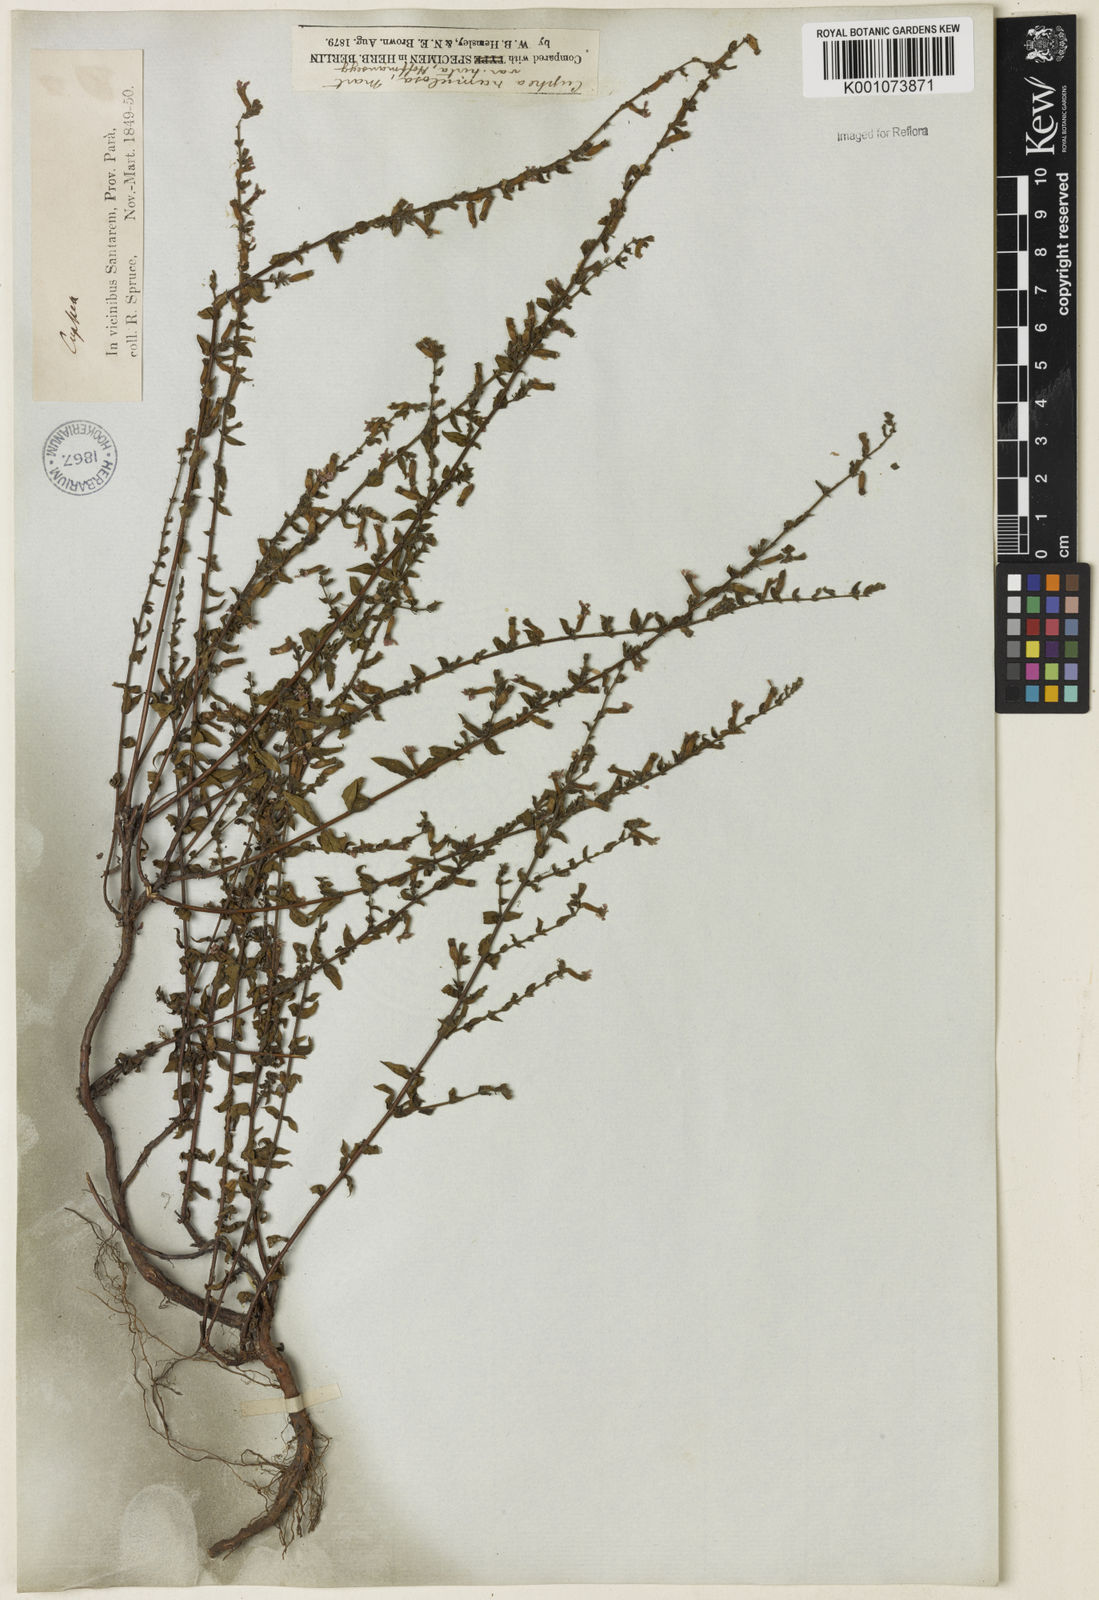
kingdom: Plantae
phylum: Tracheophyta
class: Magnoliopsida
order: Myrtales
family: Lythraceae
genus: Cuphea
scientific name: Cuphea antisyphilitica
